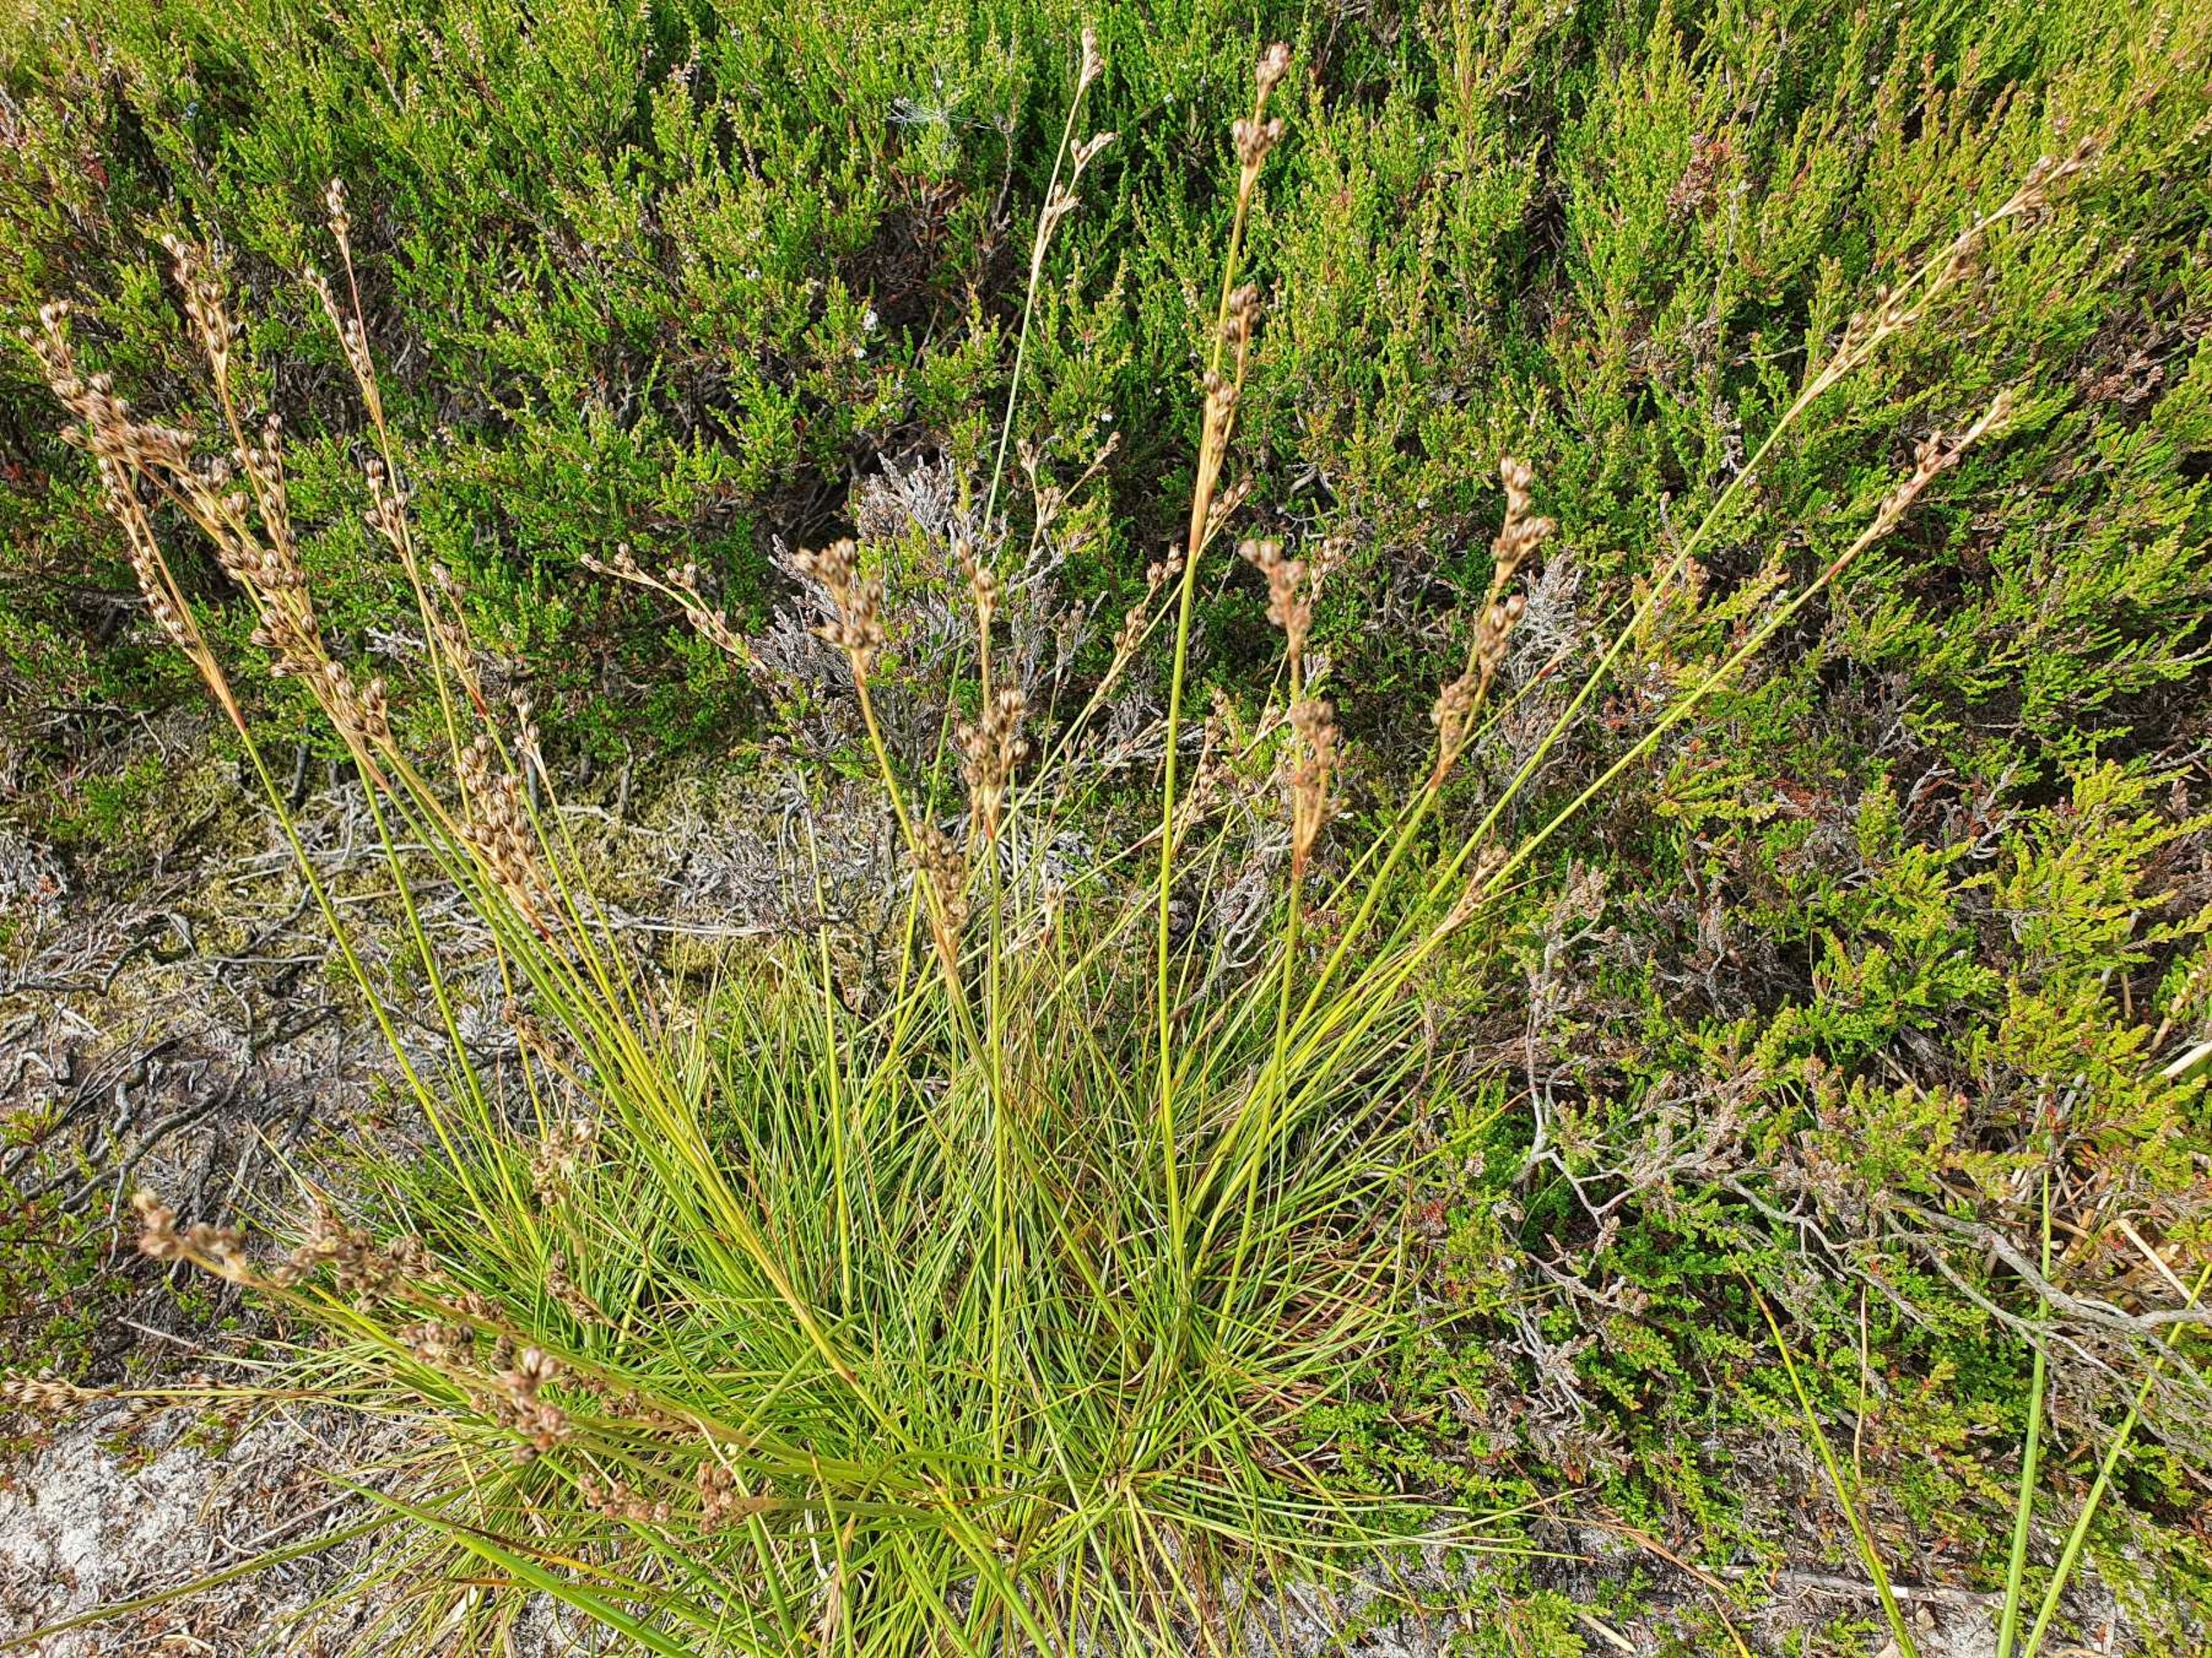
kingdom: Plantae
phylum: Tracheophyta
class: Liliopsida
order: Poales
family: Juncaceae
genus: Juncus
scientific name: Juncus squarrosus
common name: Børste-siv
